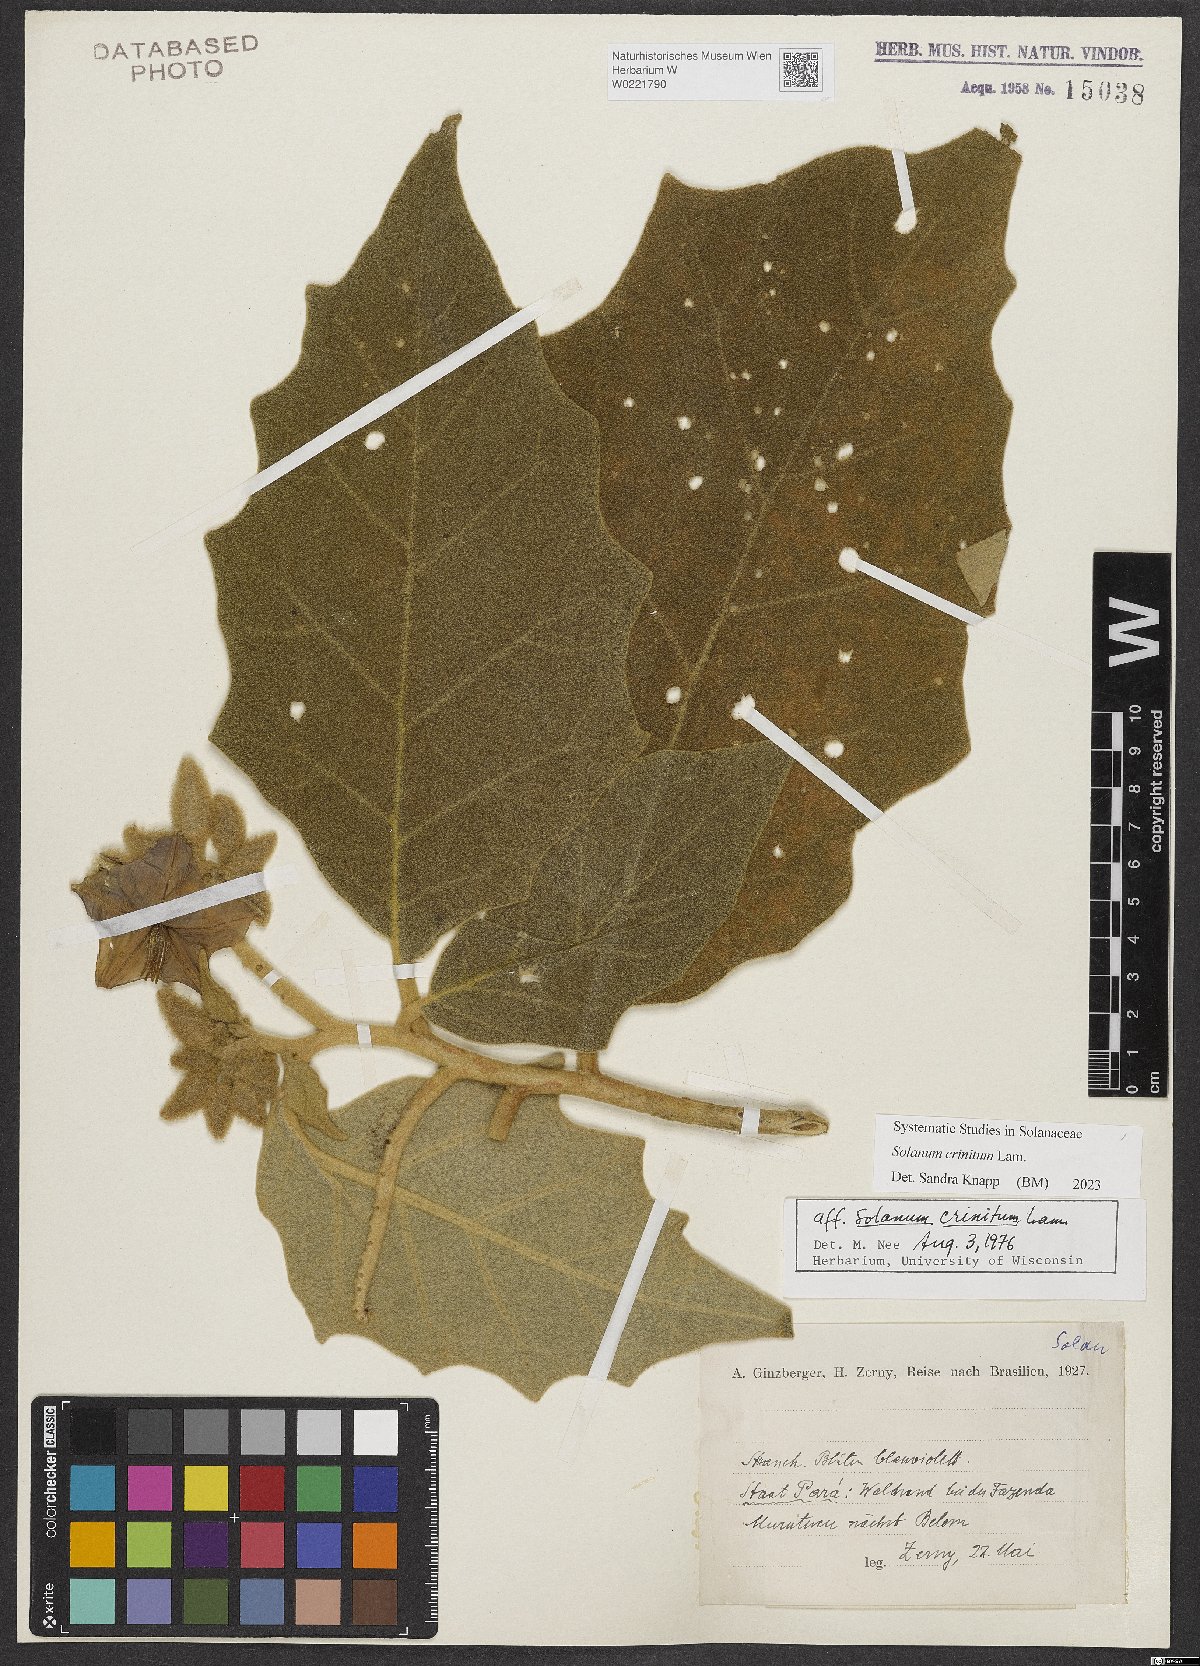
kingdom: Plantae
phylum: Tracheophyta
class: Magnoliopsida
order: Solanales
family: Solanaceae
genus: Solanum
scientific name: Solanum crinitum
